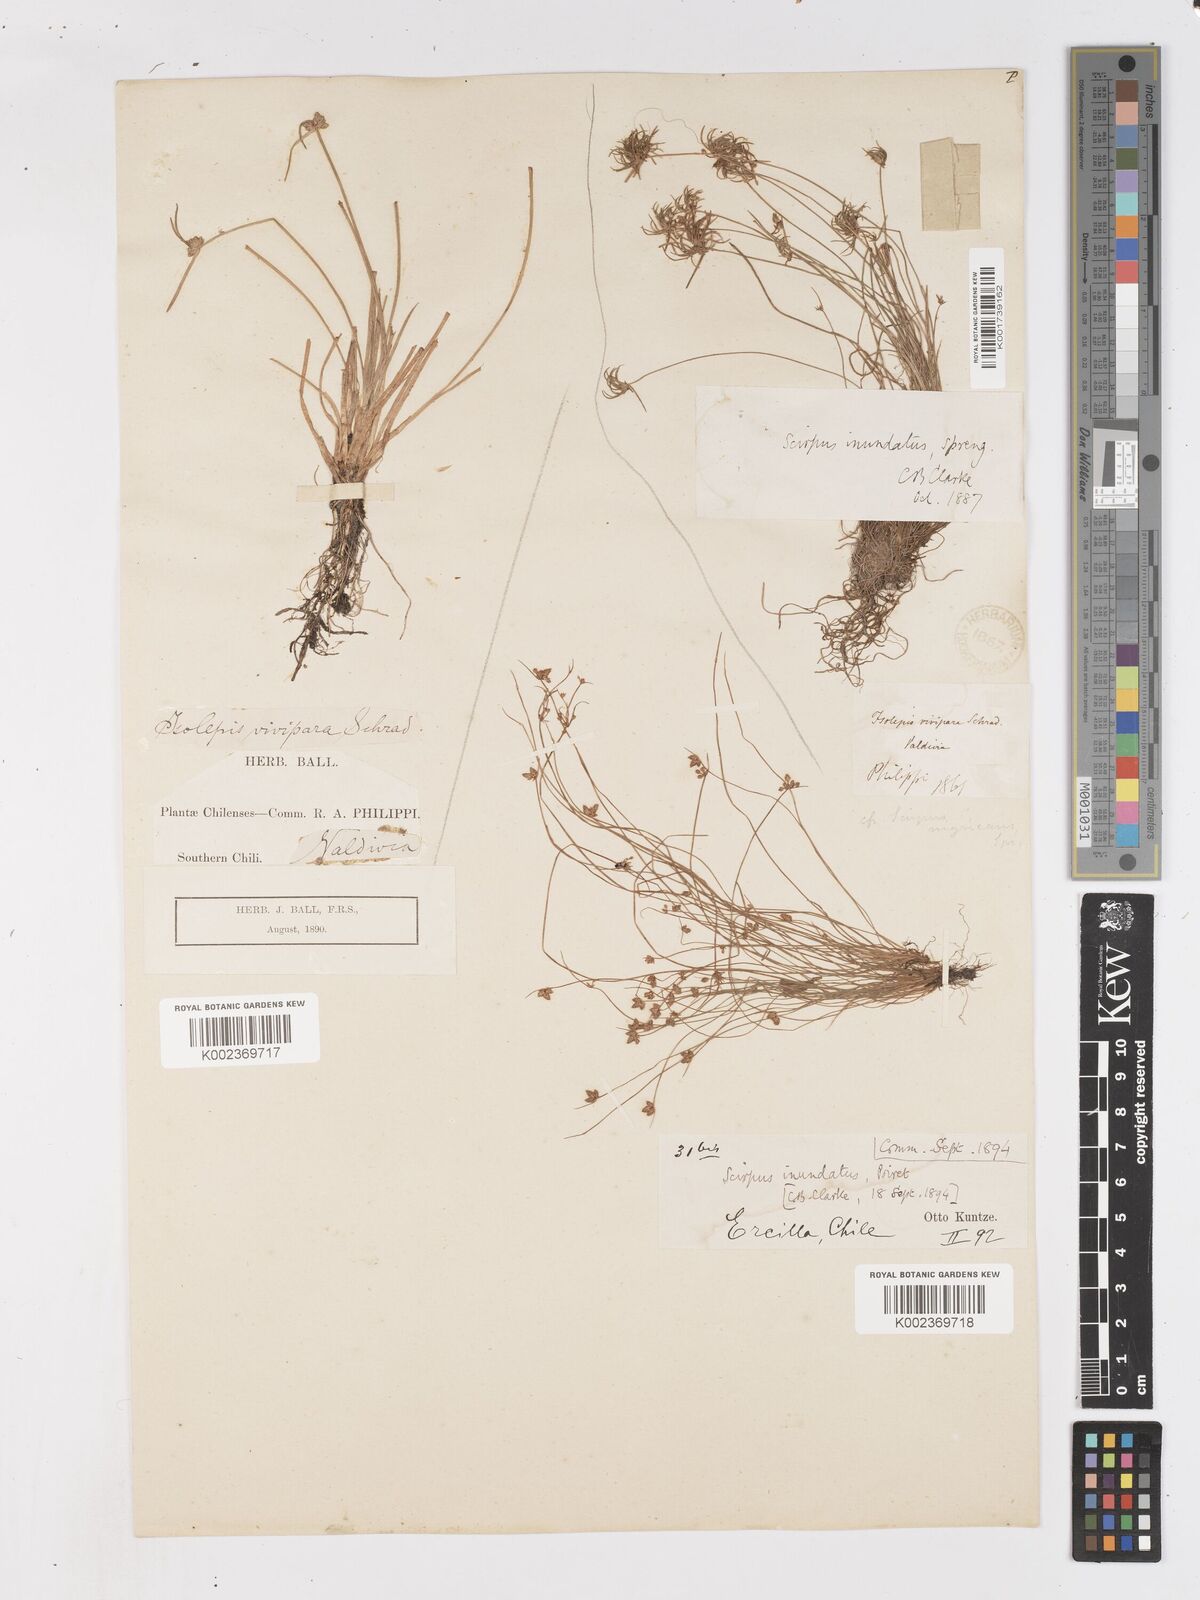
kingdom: Plantae
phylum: Tracheophyta
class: Liliopsida
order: Poales
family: Cyperaceae
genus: Isolepis
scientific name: Isolepis inundata
